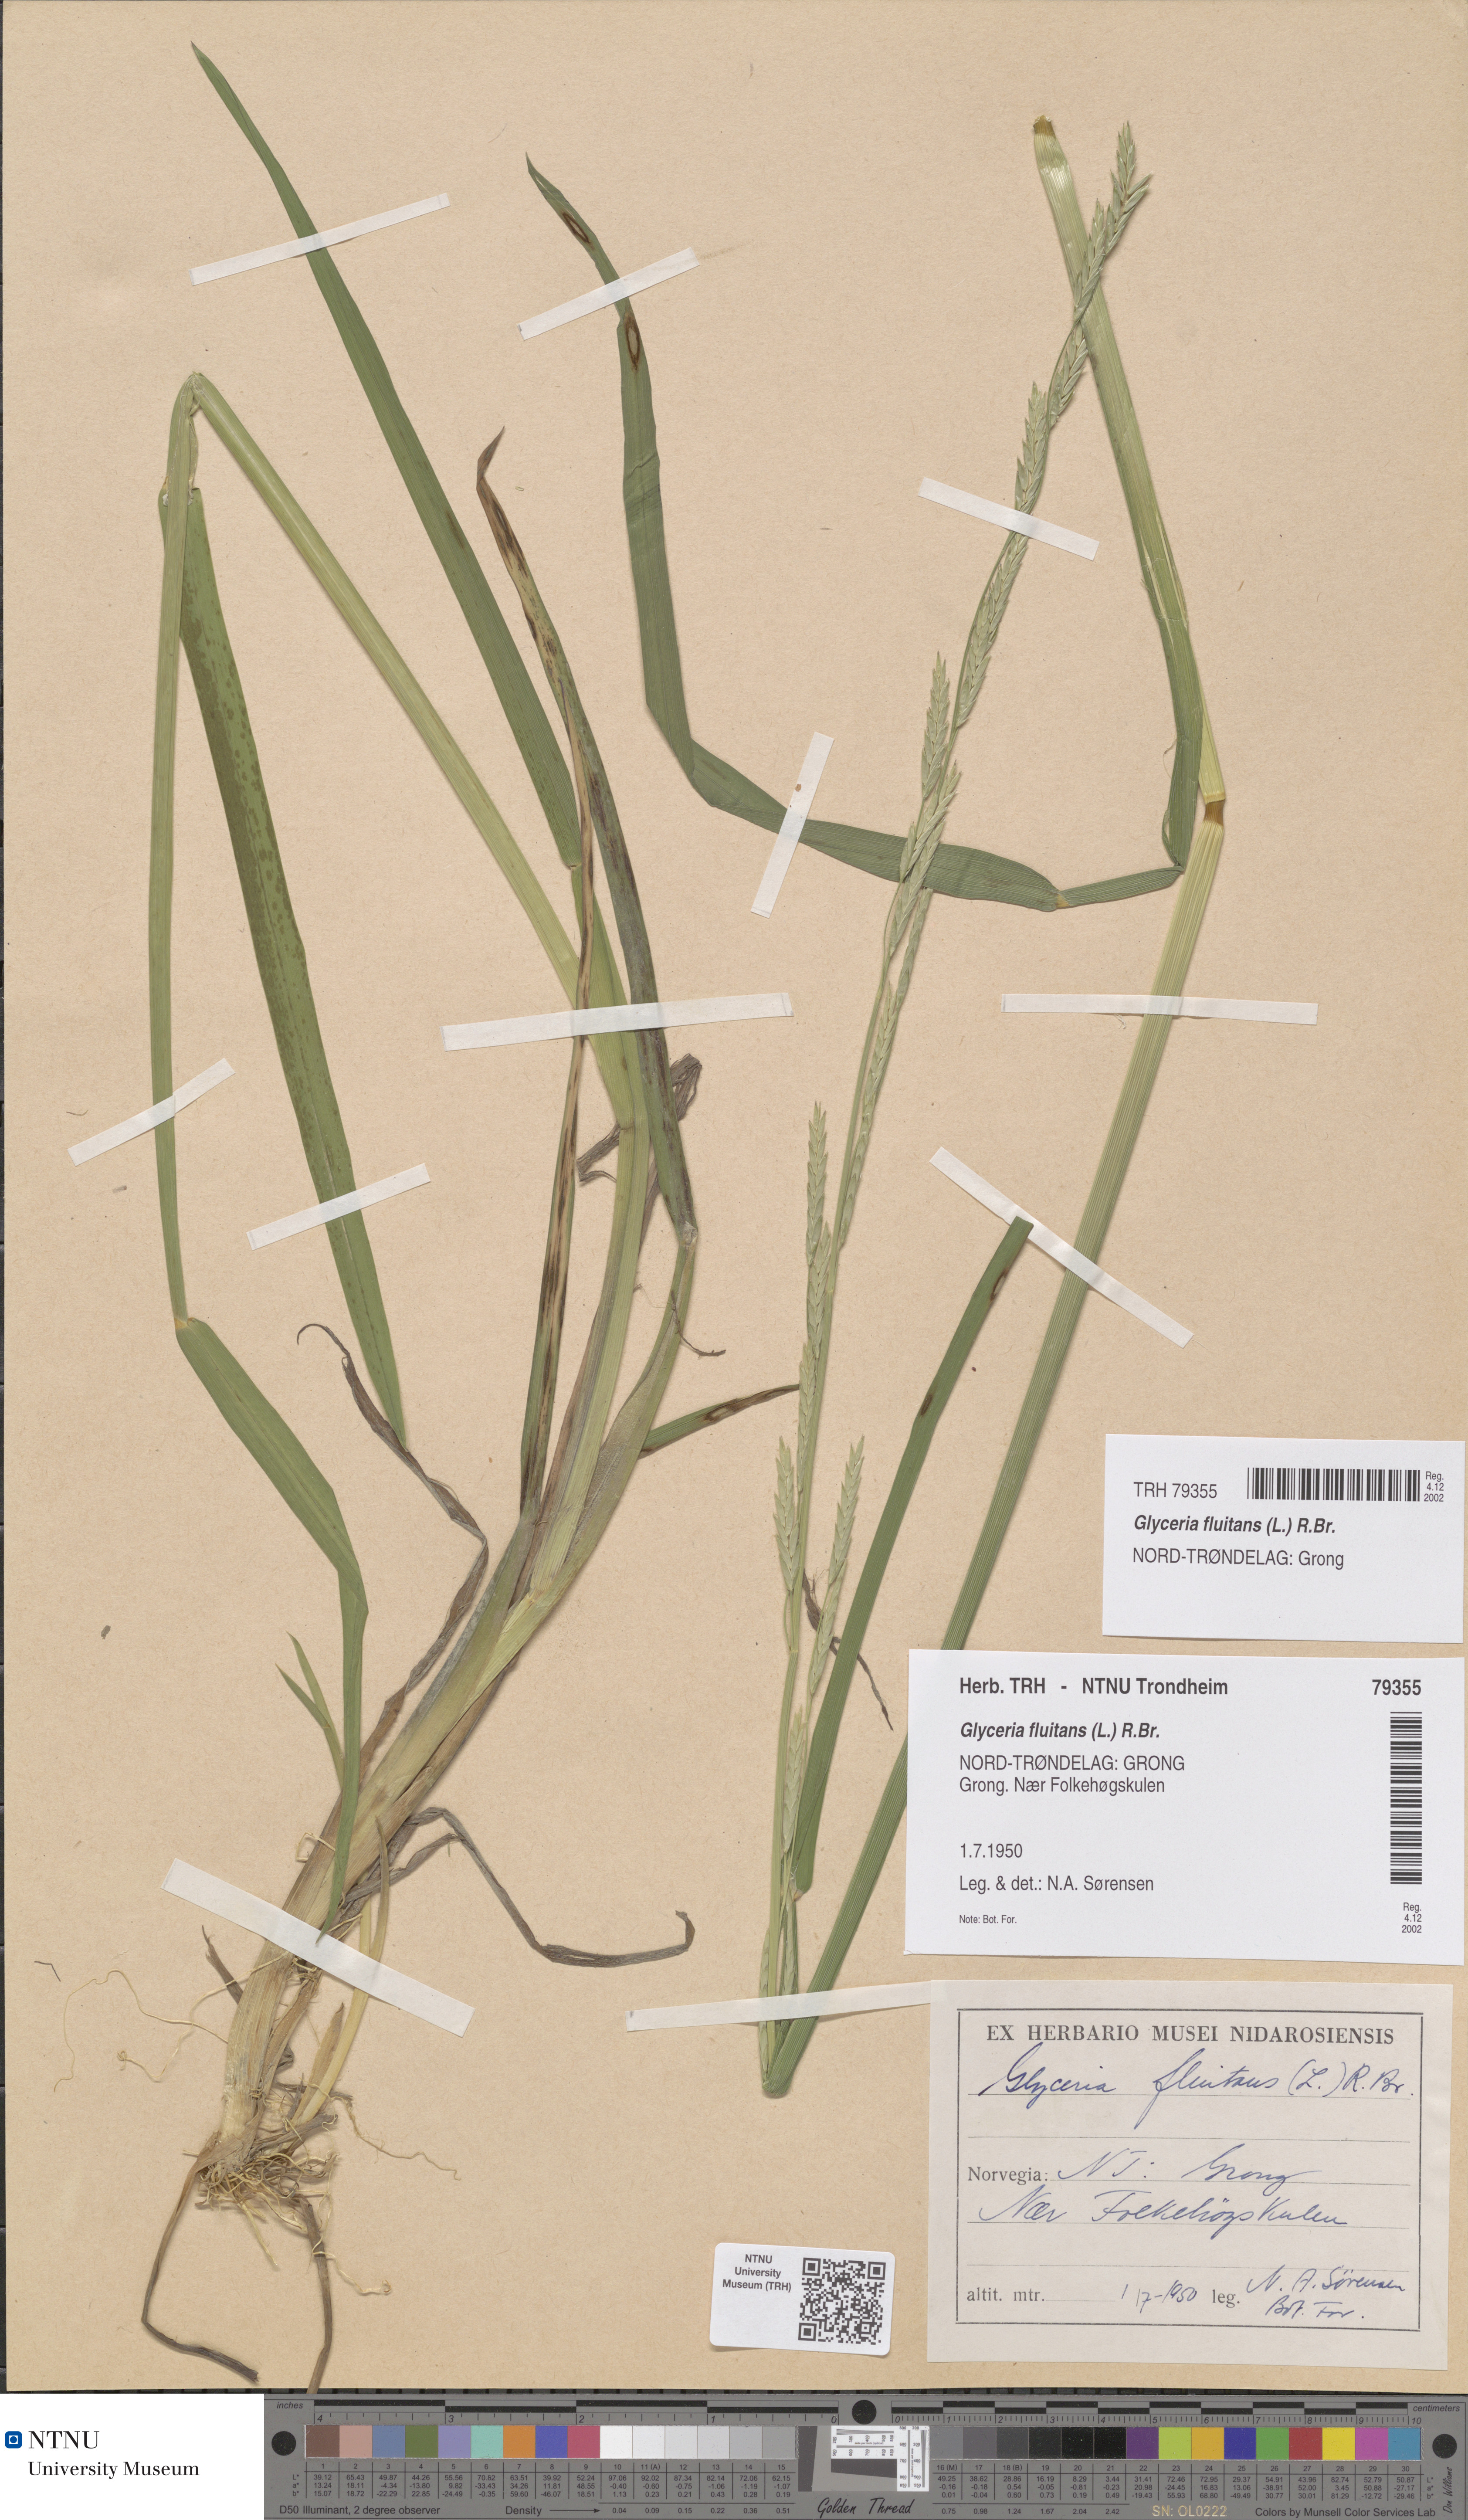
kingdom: Plantae
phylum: Tracheophyta
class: Liliopsida
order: Poales
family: Poaceae
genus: Glyceria
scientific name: Glyceria fluitans
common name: Floating sweet-grass
